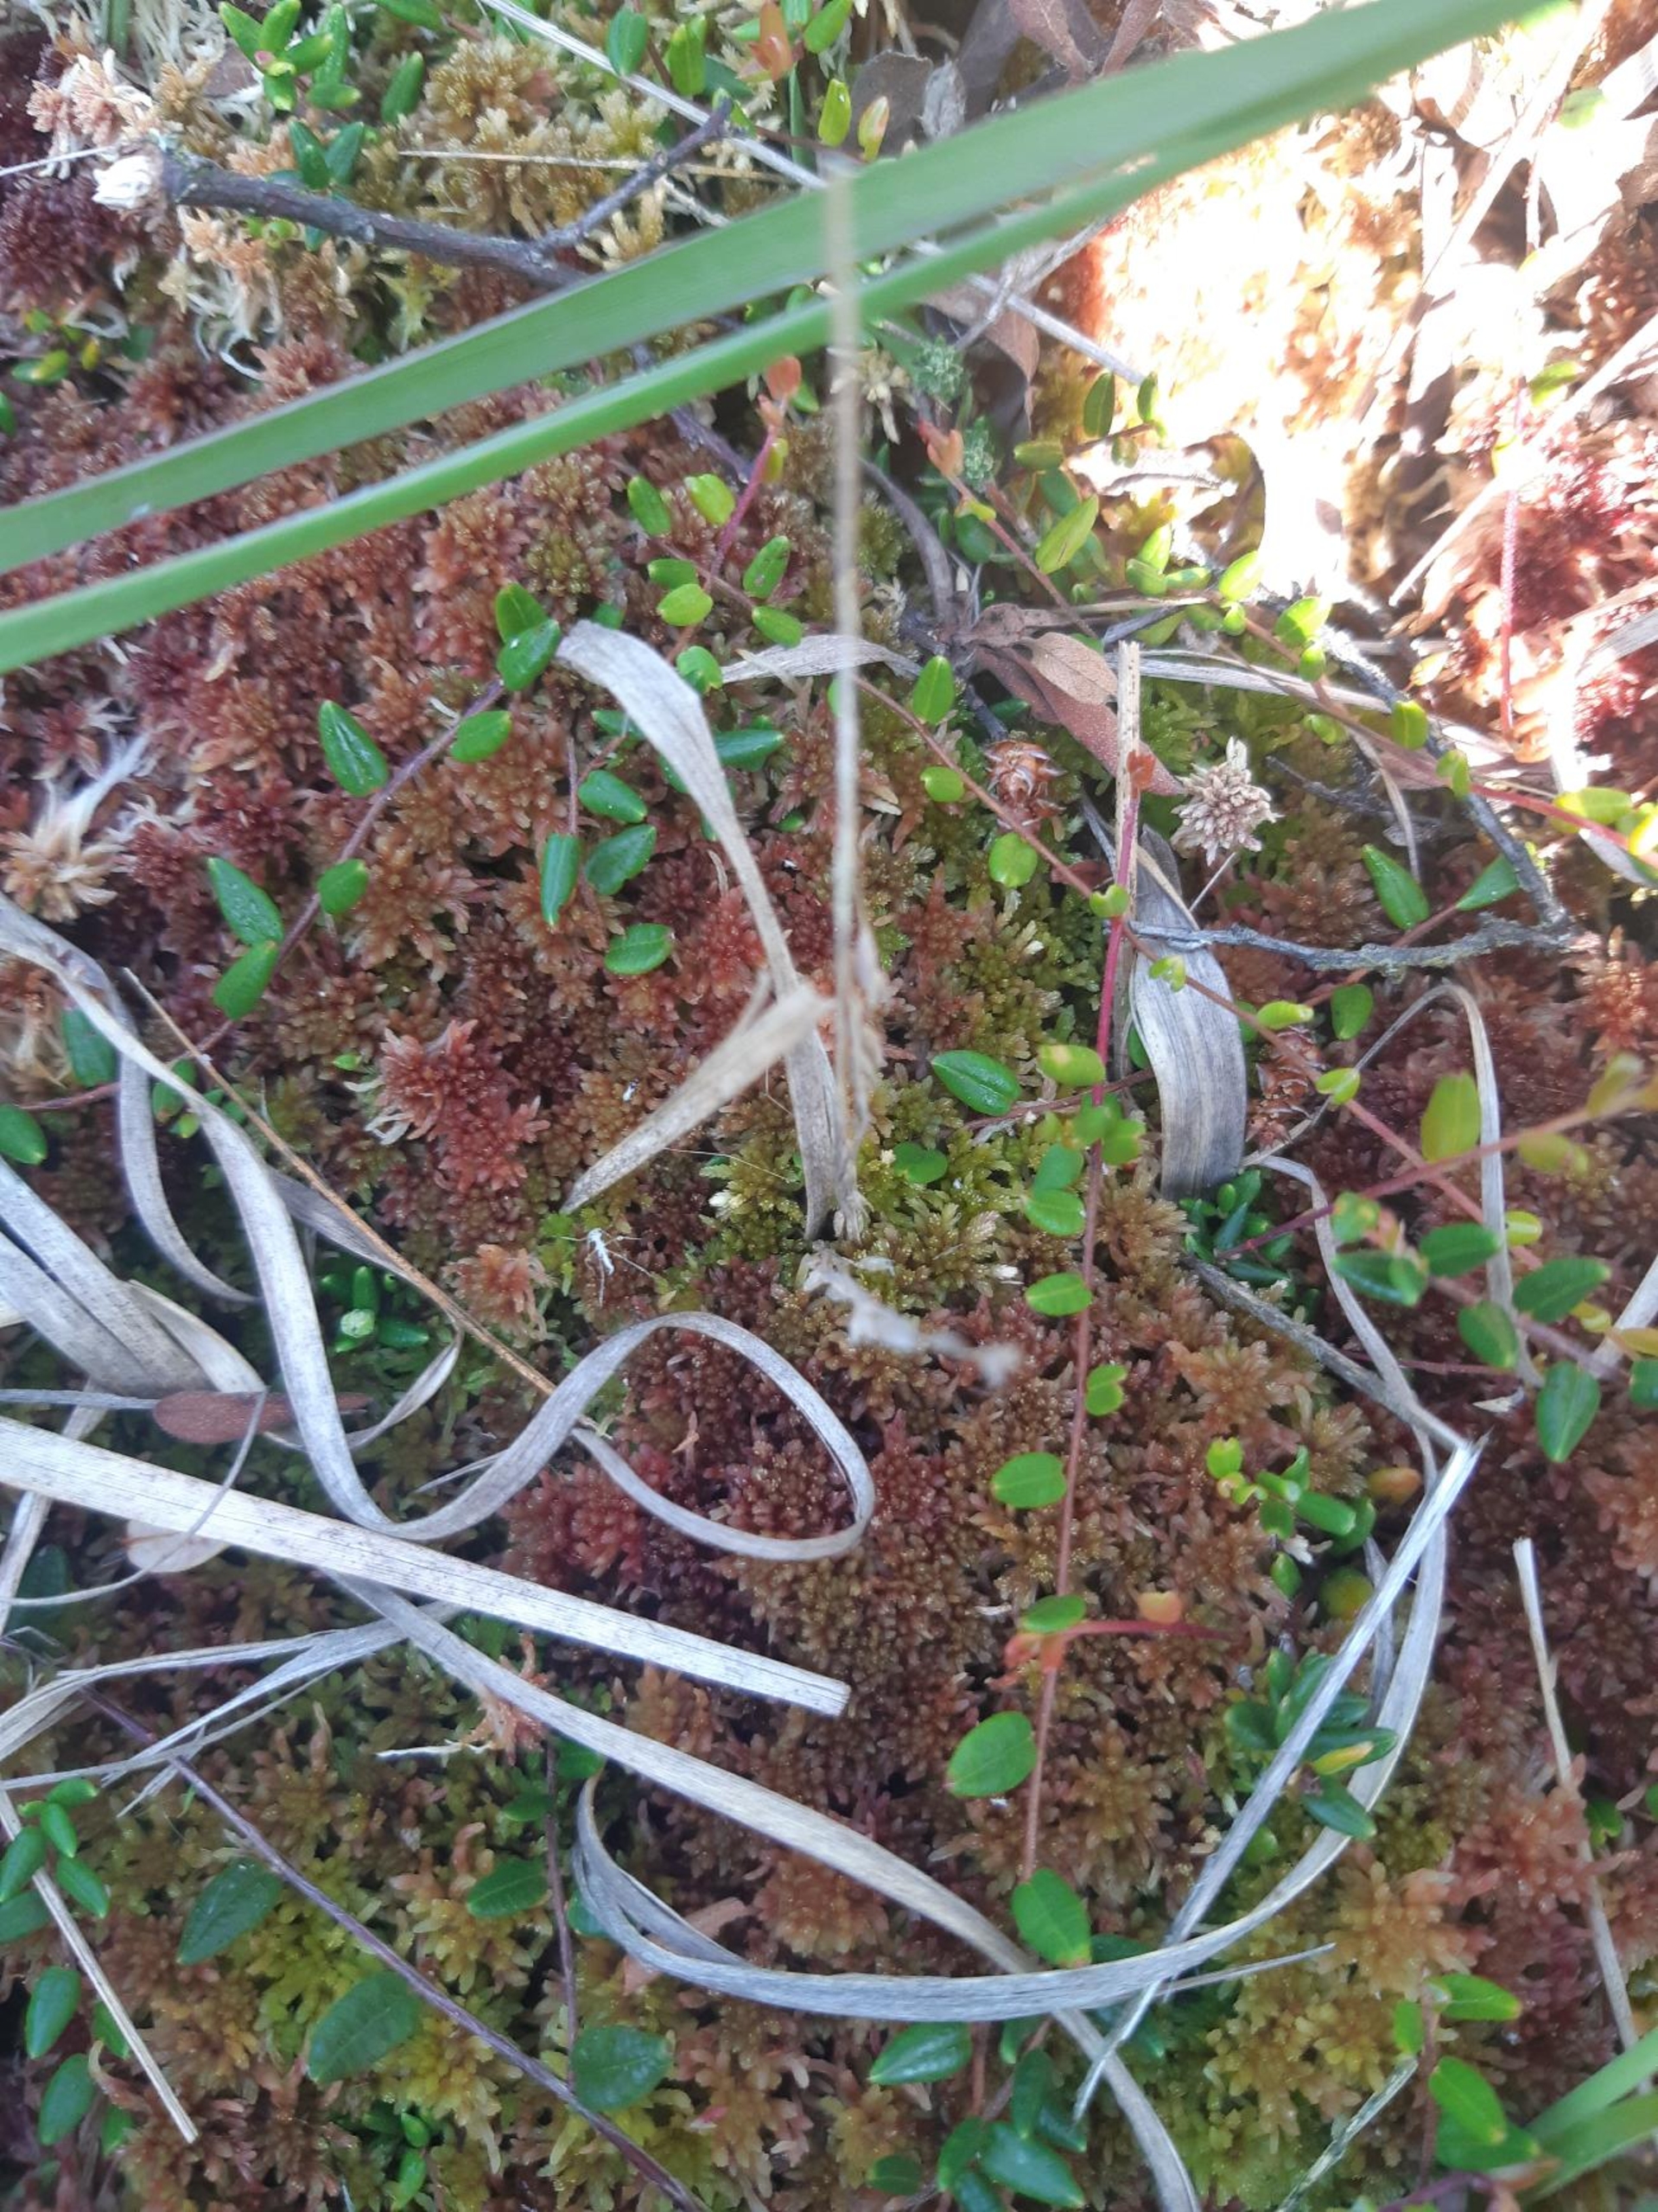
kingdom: Plantae
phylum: Tracheophyta
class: Magnoliopsida
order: Ericales
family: Ericaceae
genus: Vaccinium
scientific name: Vaccinium oxycoccos
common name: Tranebær
